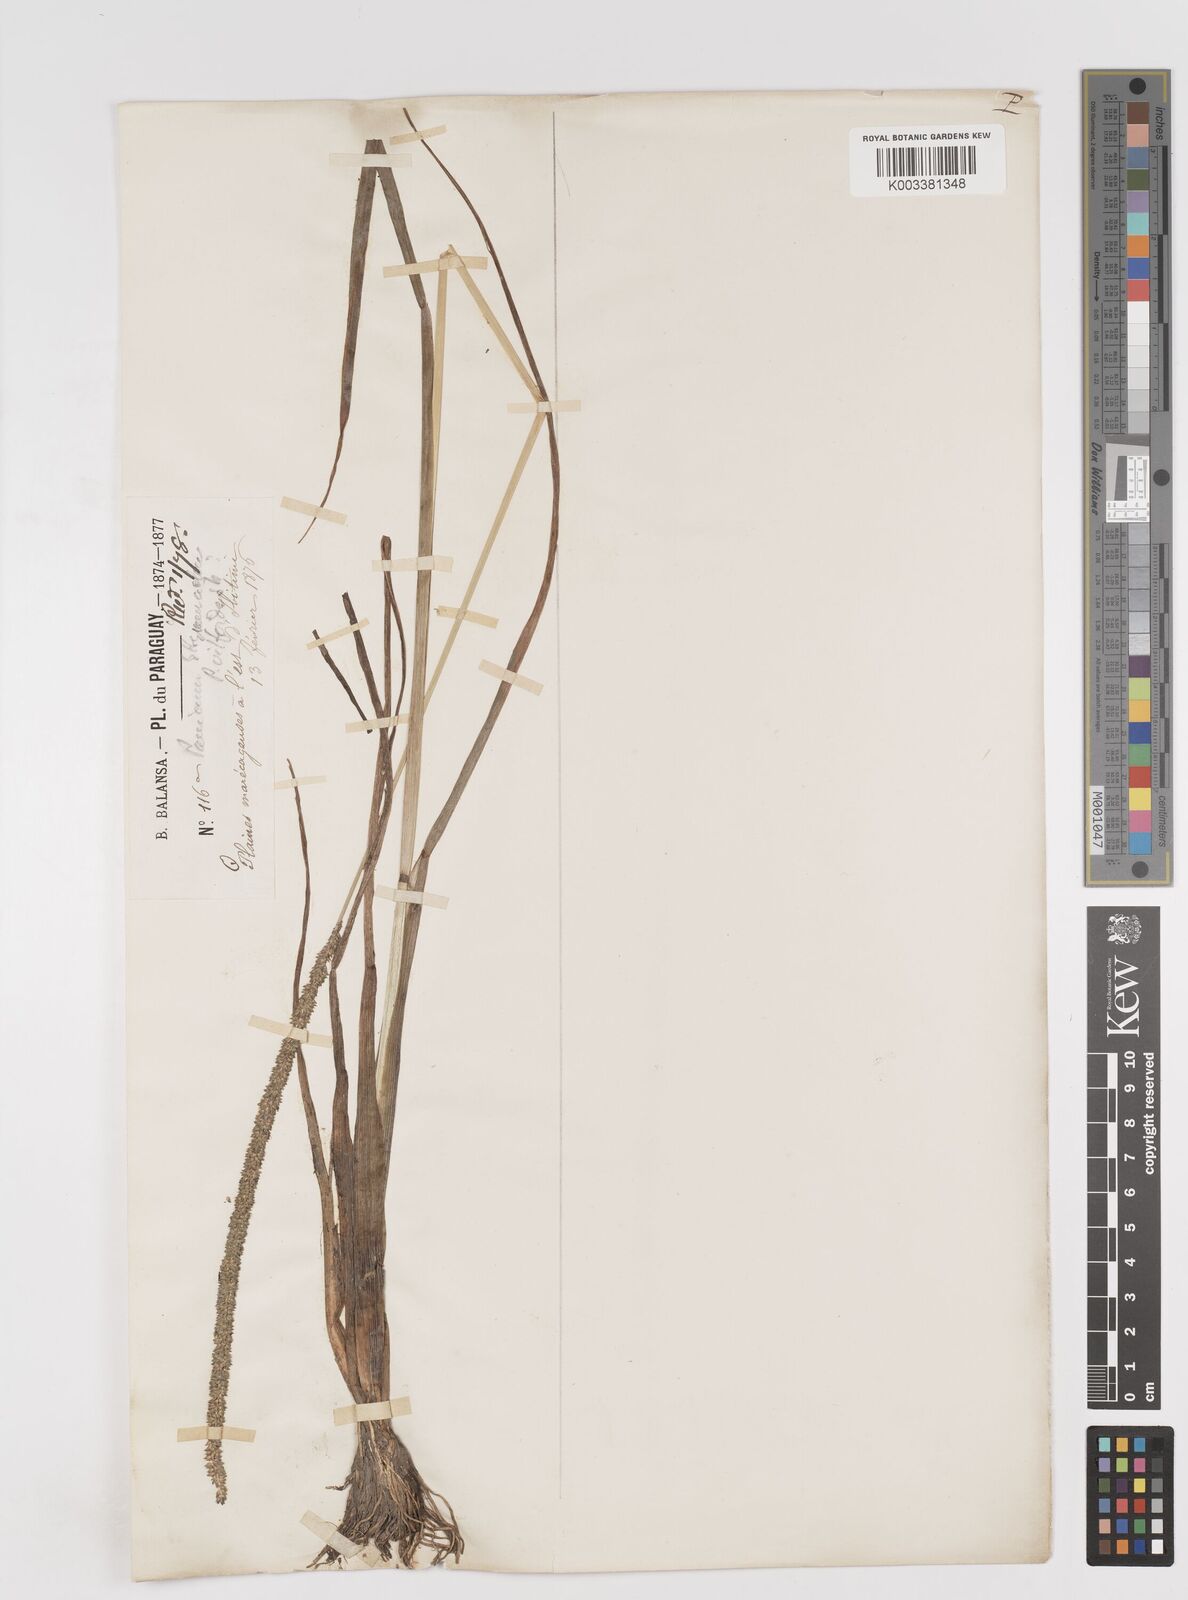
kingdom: Plantae
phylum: Tracheophyta
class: Liliopsida
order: Poales
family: Poaceae
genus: Sacciolepis
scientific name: Sacciolepis myuros
